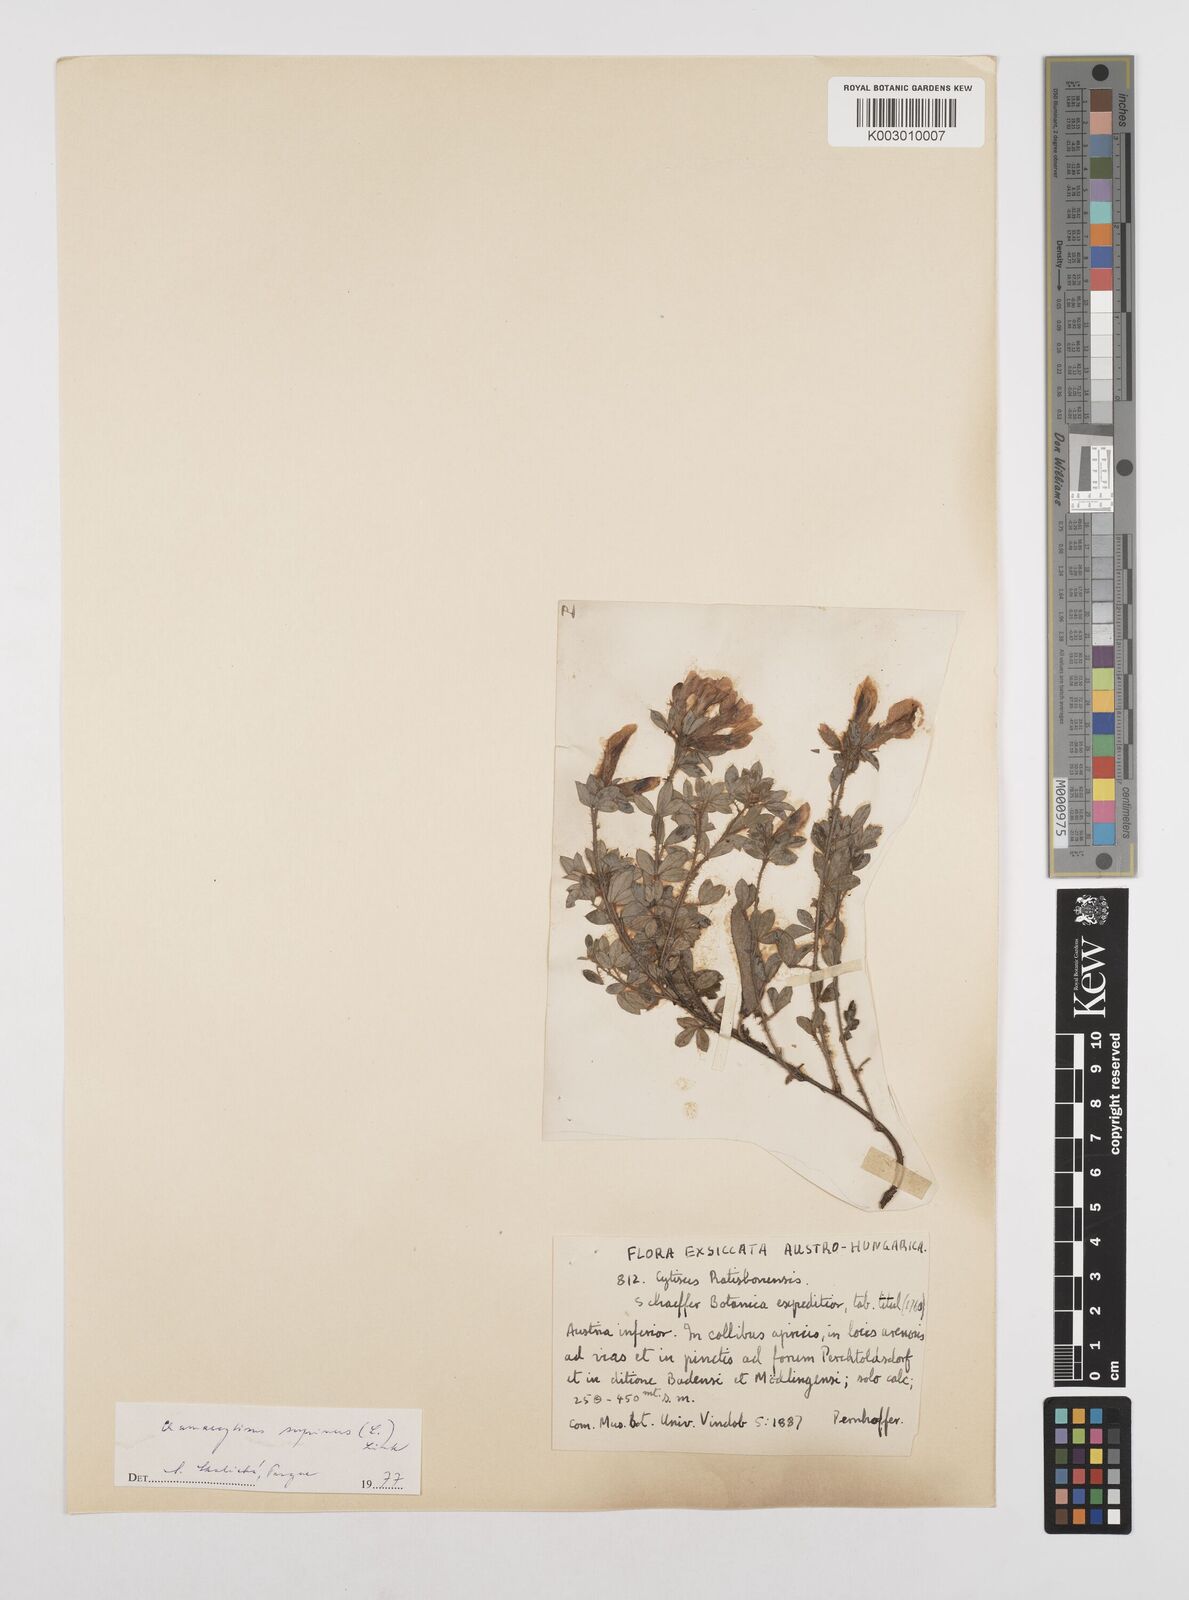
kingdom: Plantae
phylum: Tracheophyta
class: Magnoliopsida
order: Fabales
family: Fabaceae
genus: Chamaecytisus
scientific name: Chamaecytisus hirsutus
